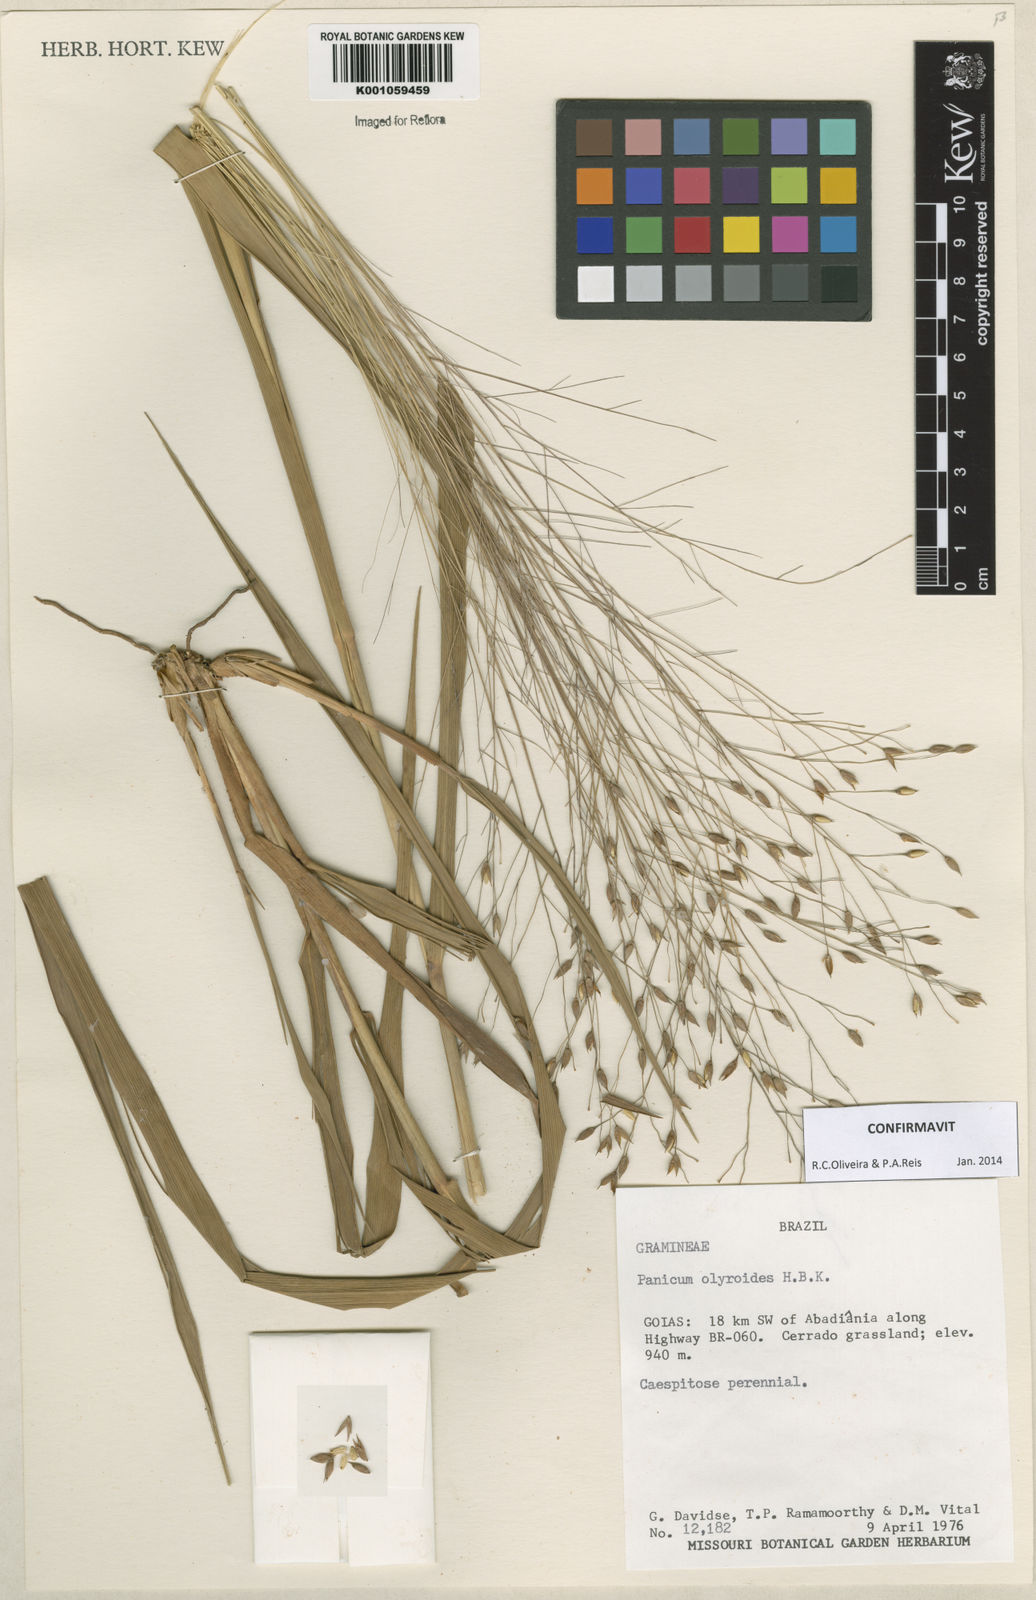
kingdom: Plantae
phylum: Tracheophyta
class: Liliopsida
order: Poales
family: Poaceae
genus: Panicum
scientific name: Panicum olyroides
